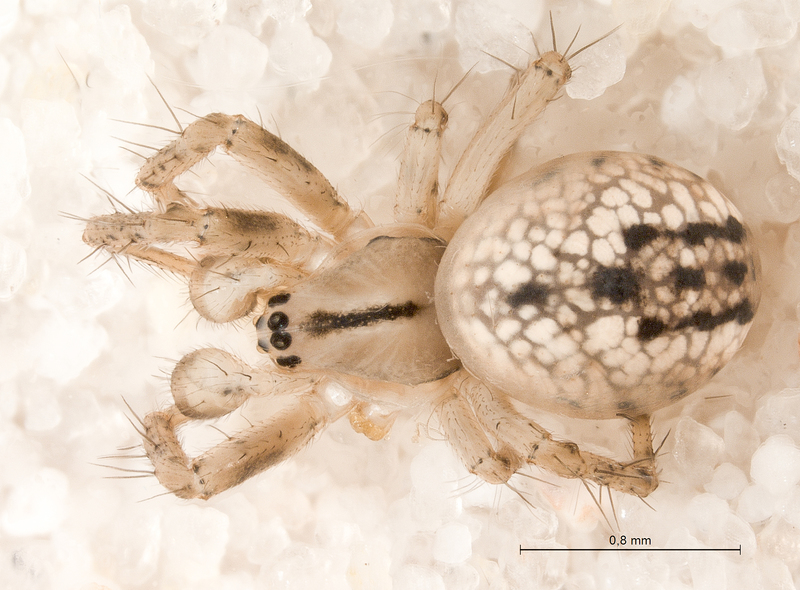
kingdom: Animalia
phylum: Arthropoda
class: Arachnida
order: Araneae
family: Araneidae
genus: Mangora
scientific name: Mangora acalypha
